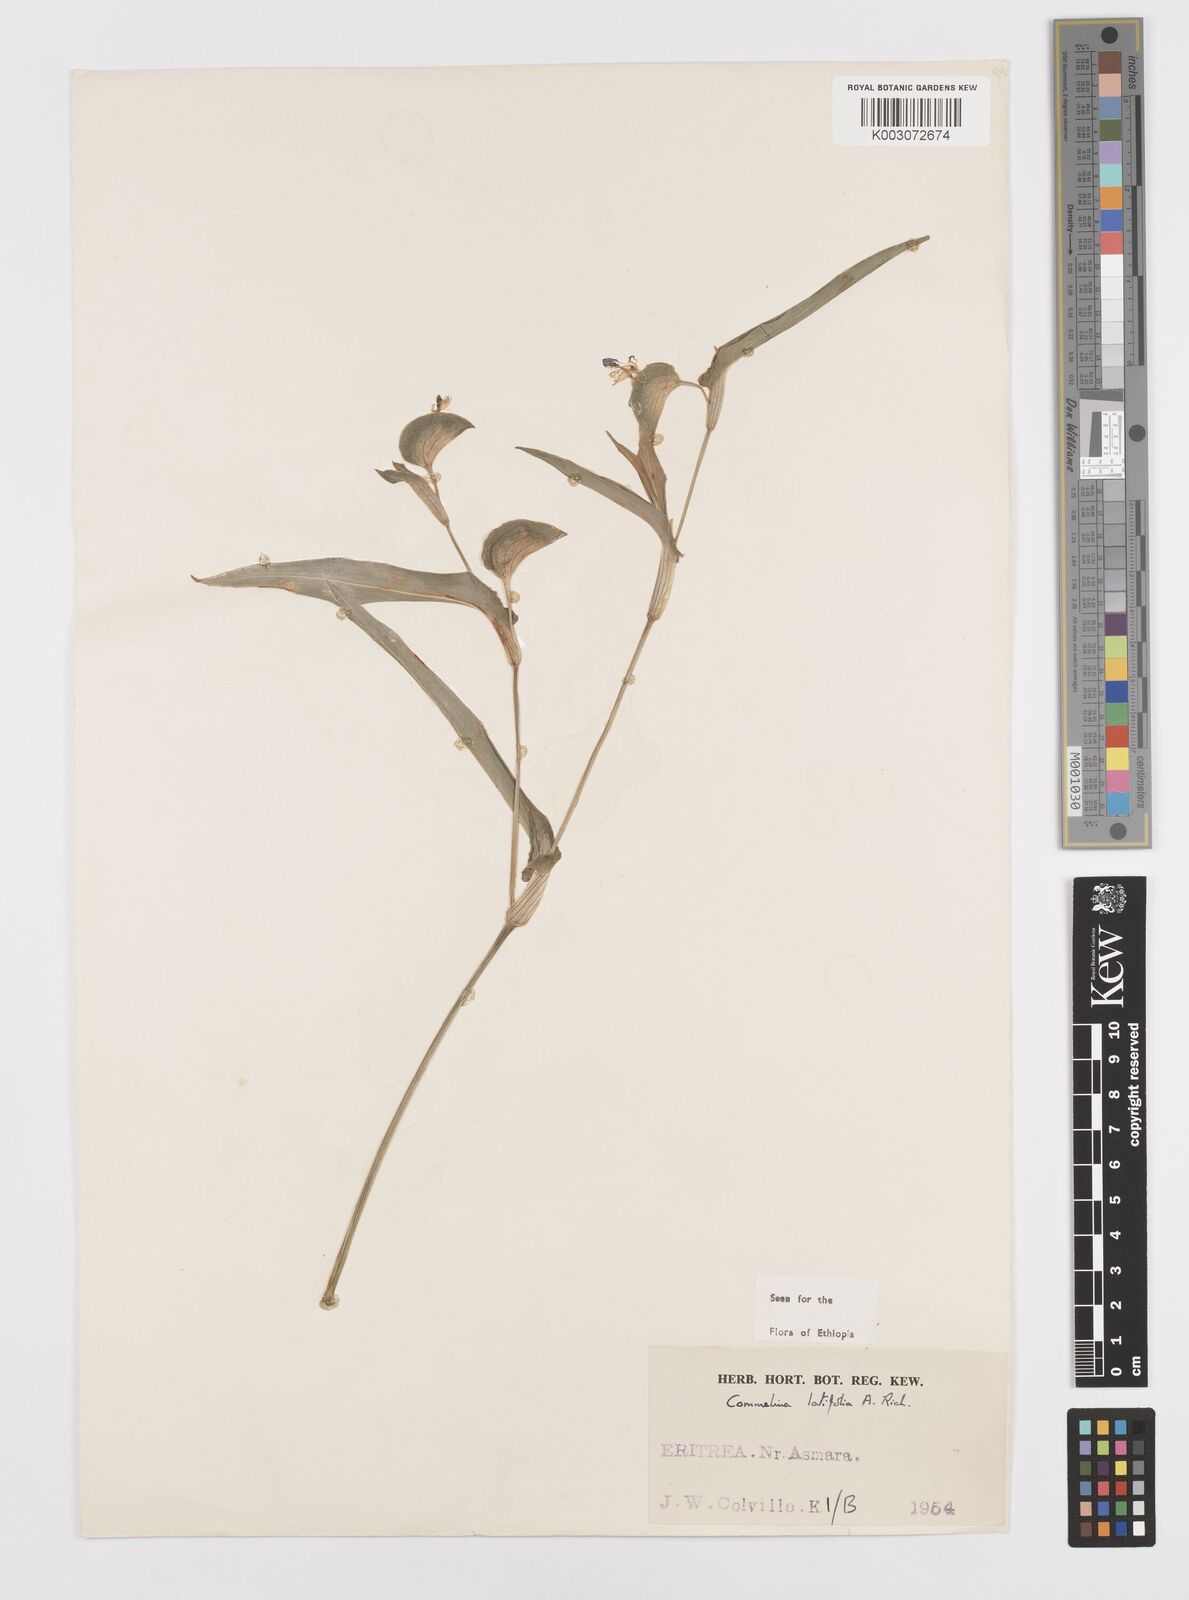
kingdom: Plantae
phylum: Tracheophyta
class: Liliopsida
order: Commelinales
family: Commelinaceae
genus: Commelina
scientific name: Commelina imberbis
